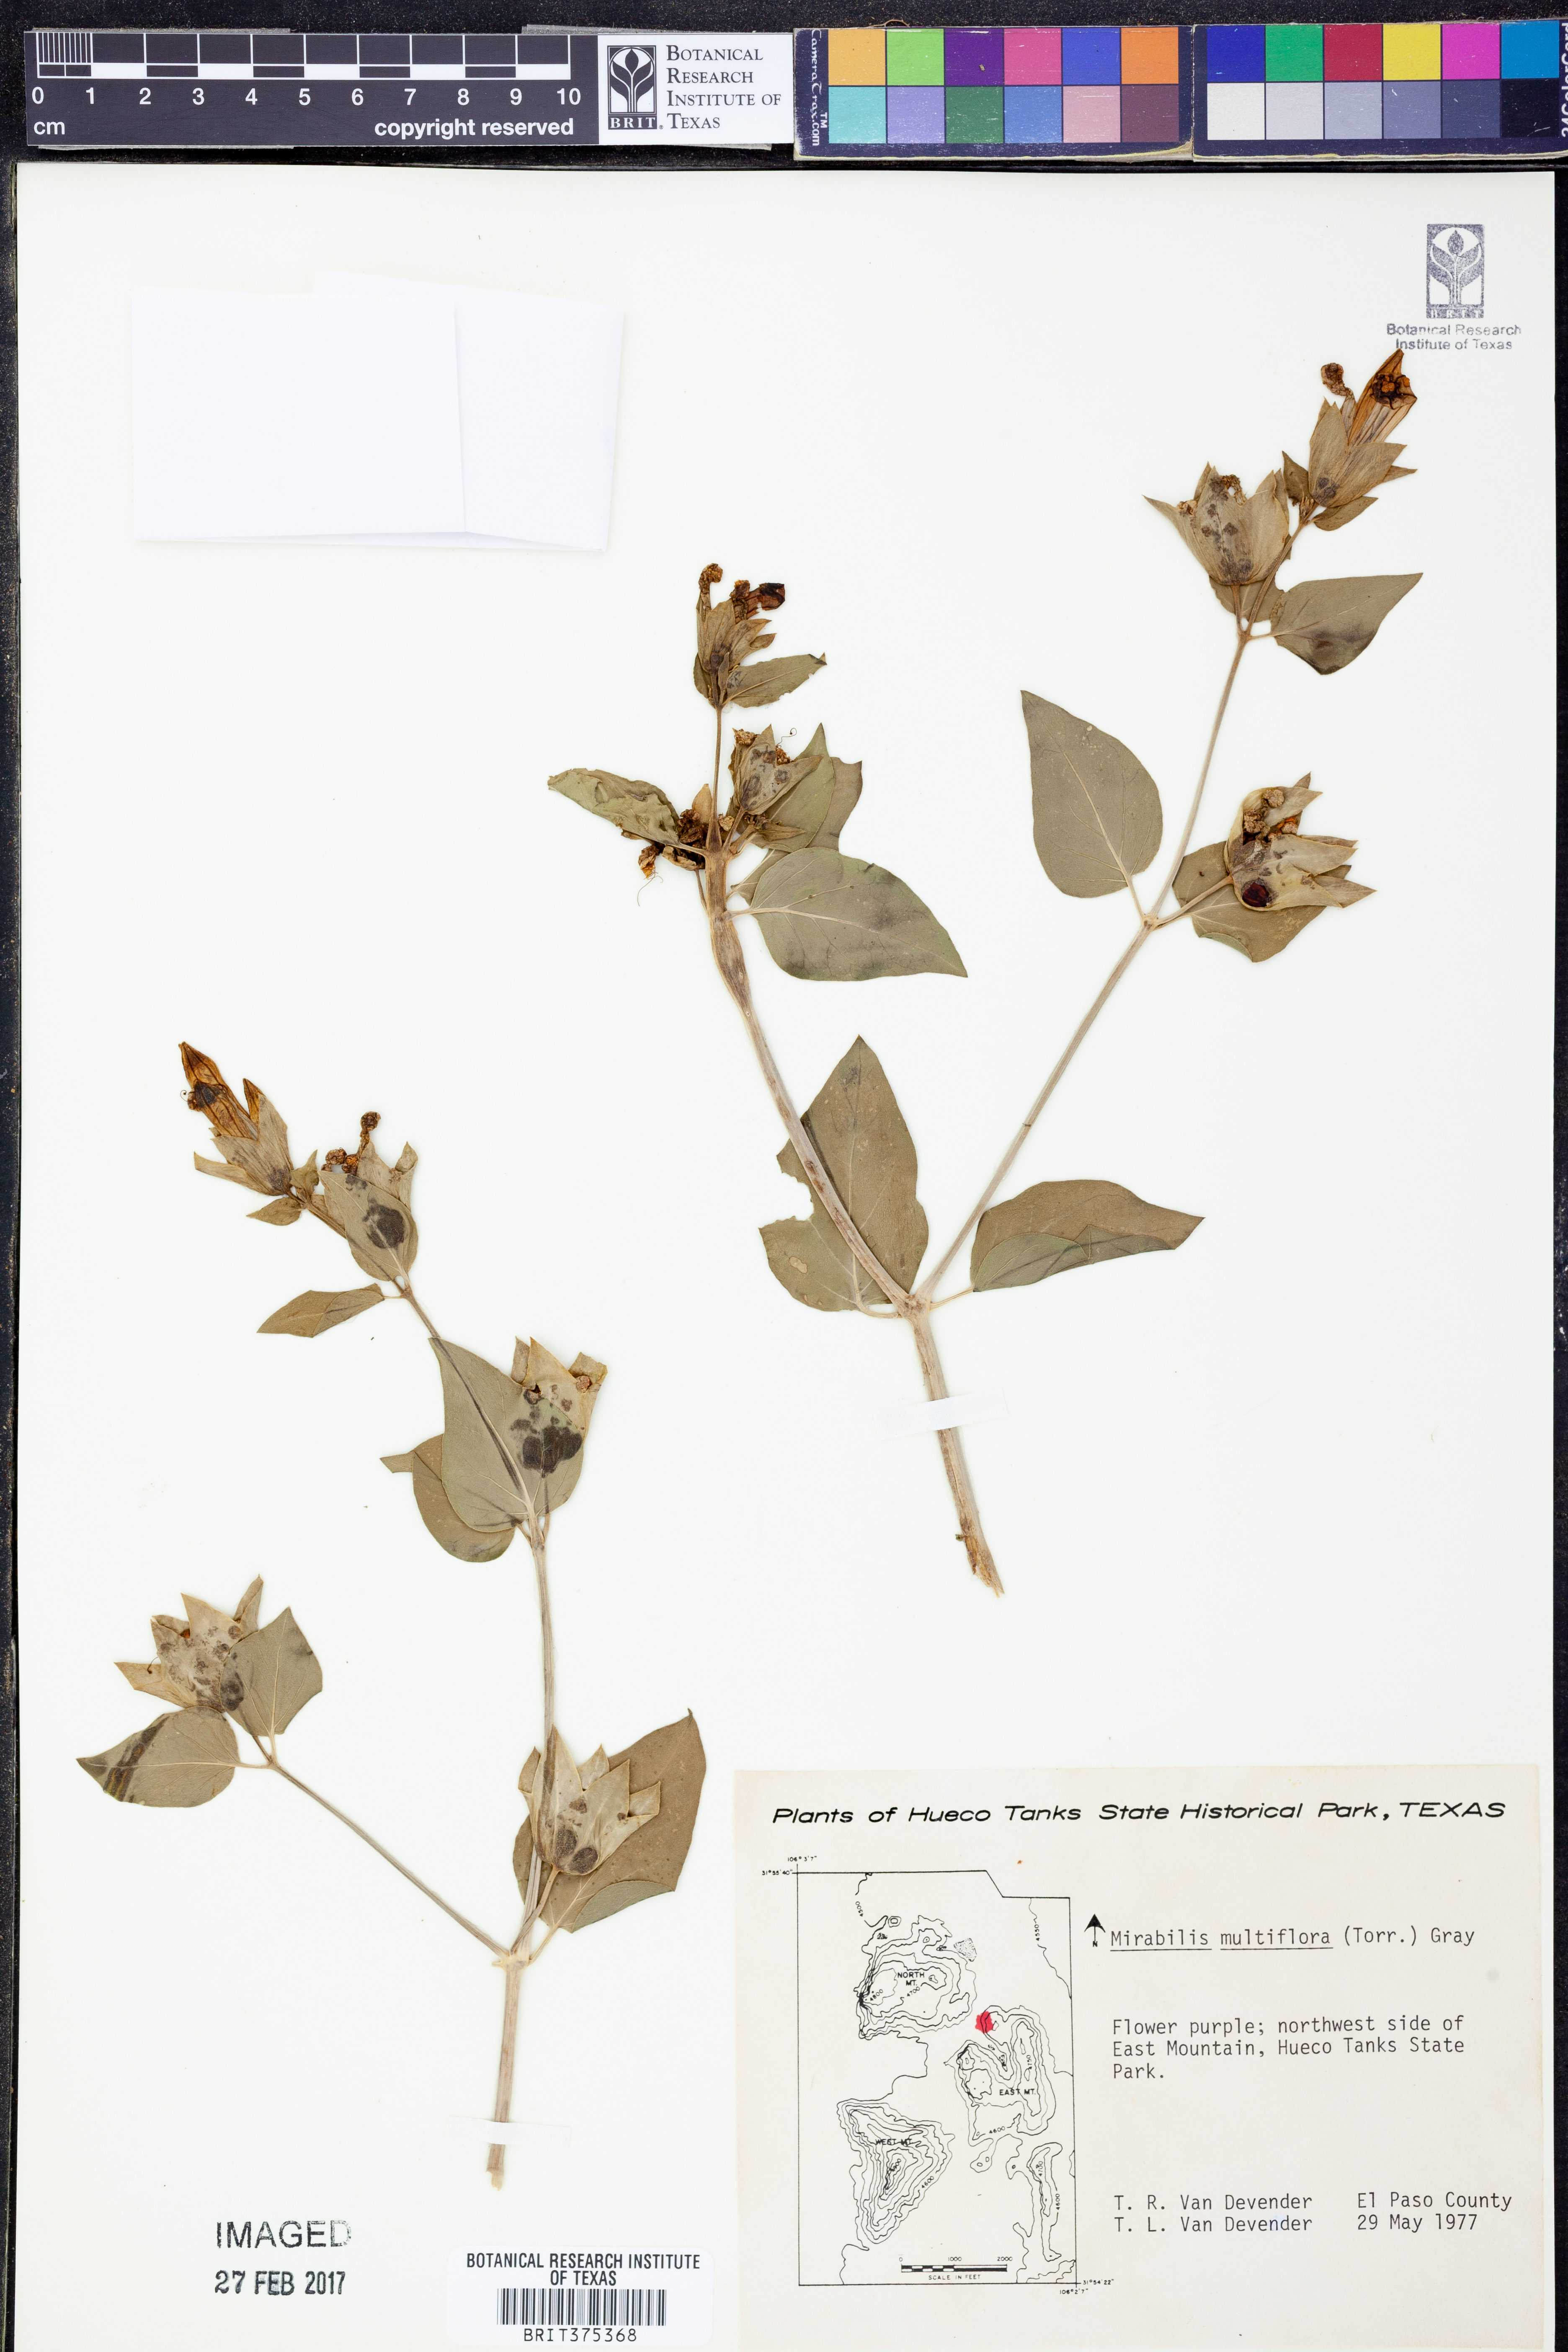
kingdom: Plantae
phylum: Tracheophyta
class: Magnoliopsida
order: Caryophyllales
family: Nyctaginaceae
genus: Mirabilis
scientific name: Mirabilis multiflora
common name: Froebel's four-o'clock
